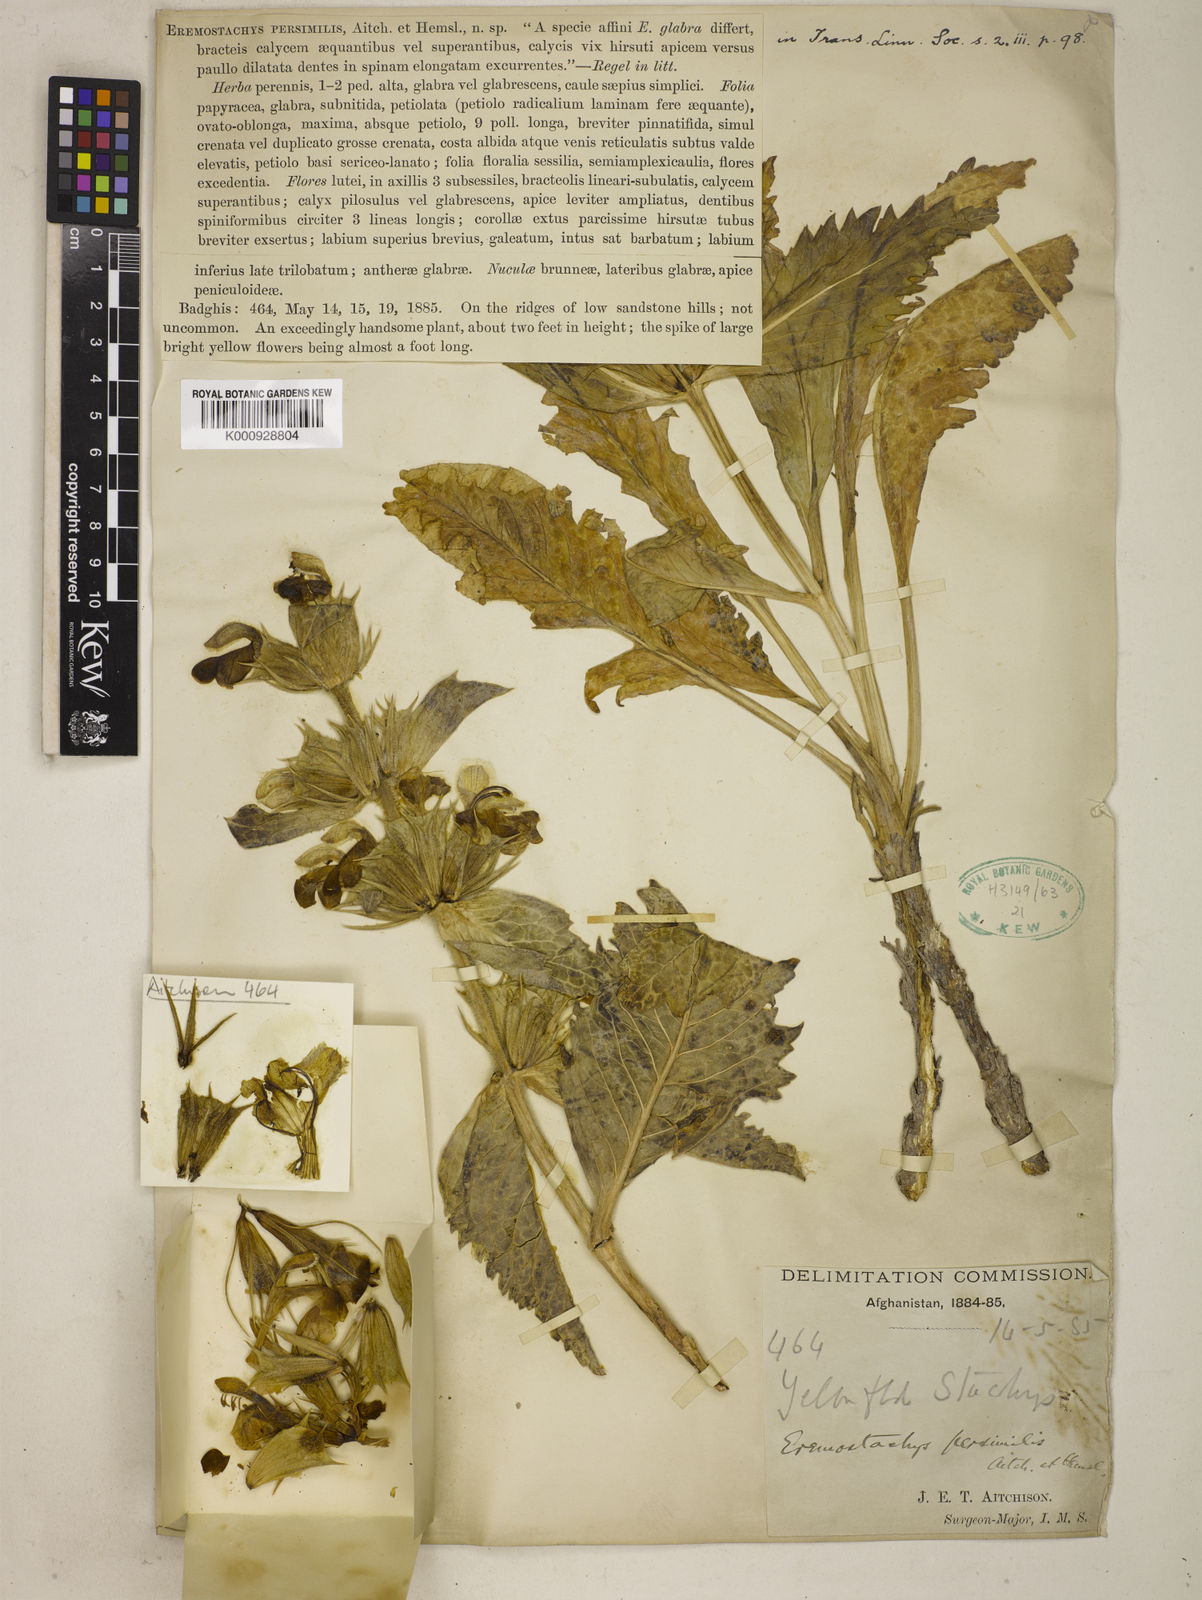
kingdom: Plantae
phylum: Tracheophyta
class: Magnoliopsida
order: Lamiales
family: Lamiaceae
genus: Phlomoides
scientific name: Phlomoides persimilis
